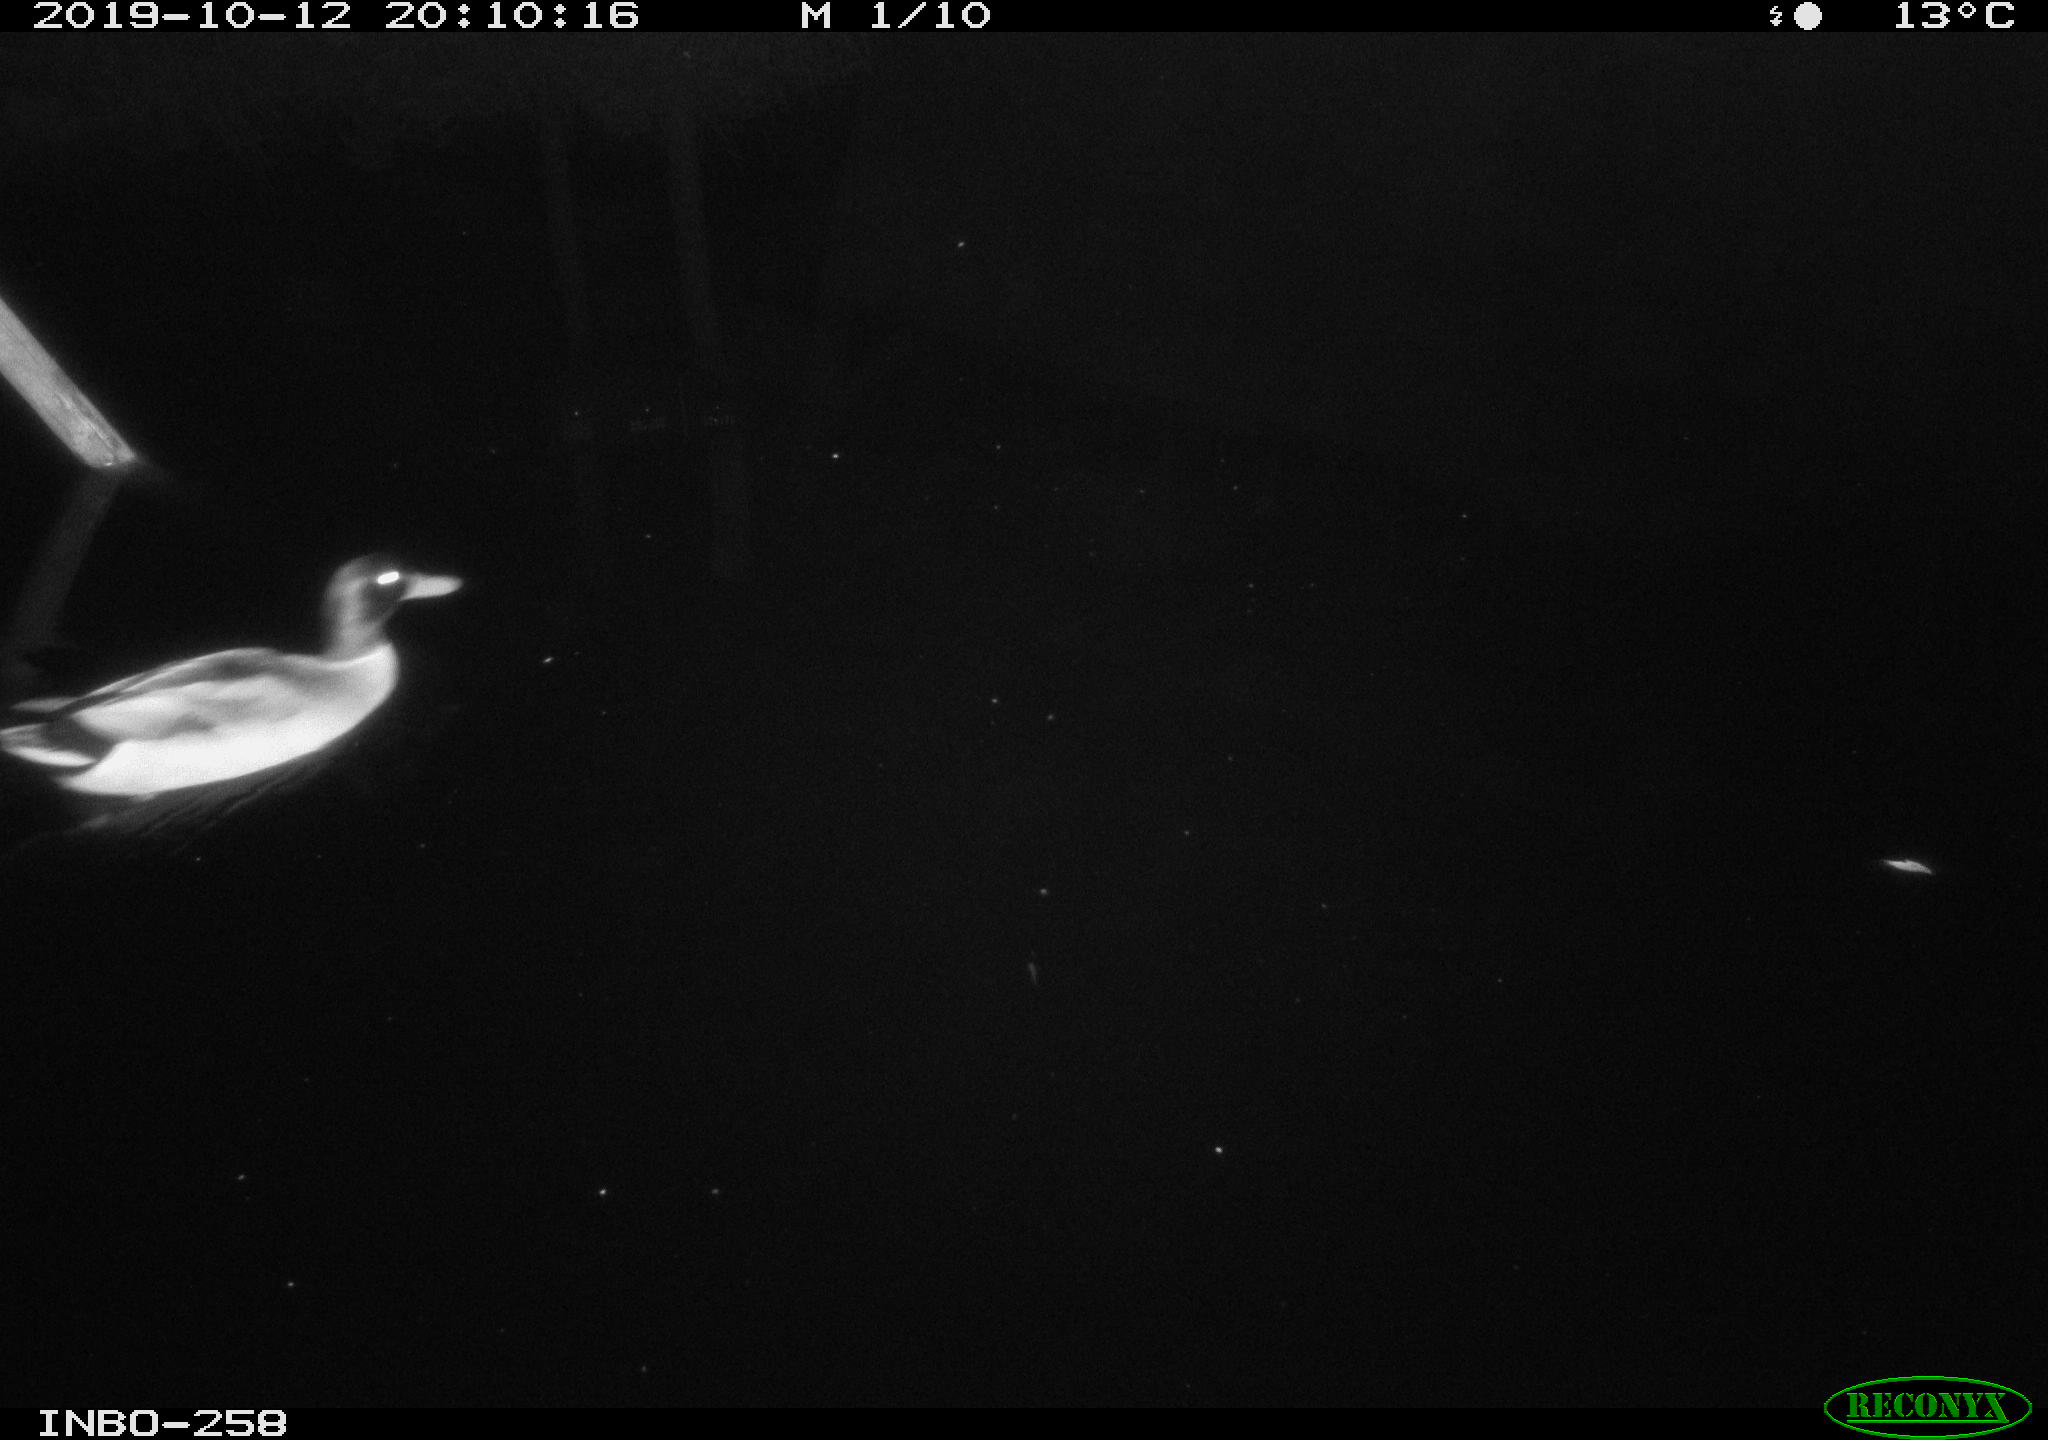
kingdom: Animalia
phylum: Chordata
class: Aves
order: Anseriformes
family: Anatidae
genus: Anas
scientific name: Anas platyrhynchos
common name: Mallard
